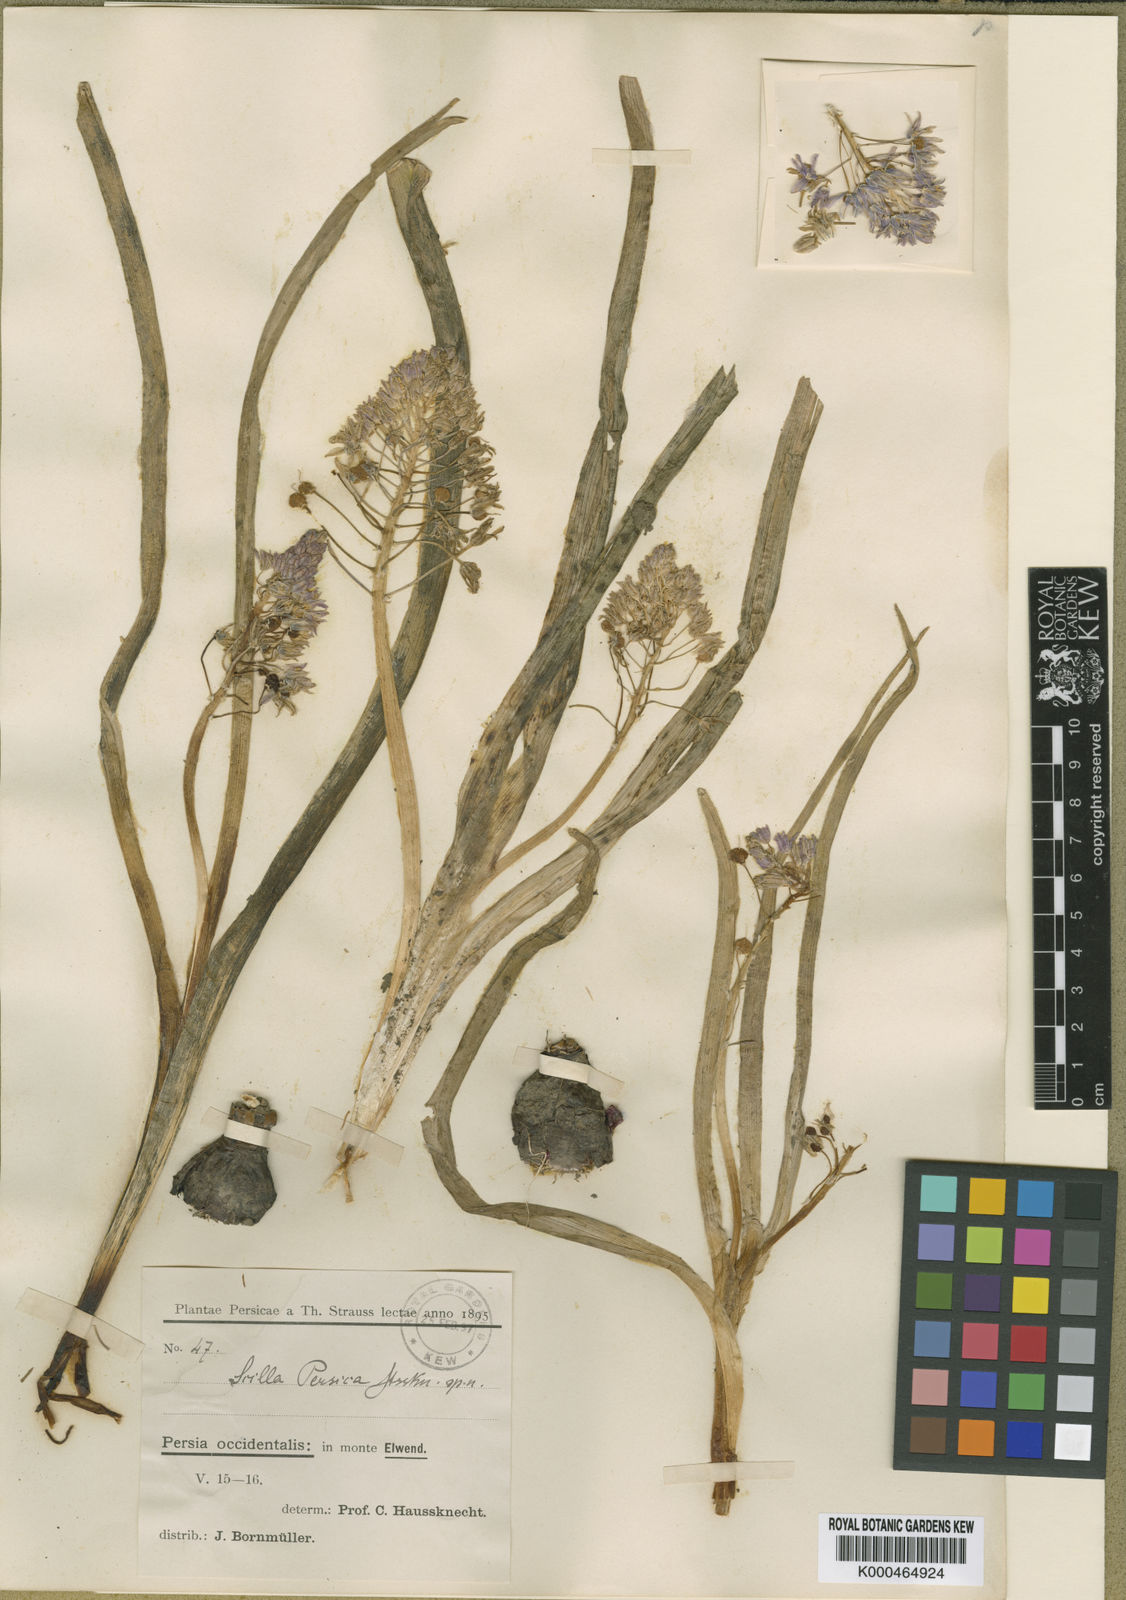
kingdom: Plantae
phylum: Tracheophyta
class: Liliopsida
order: Asparagales
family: Asparagaceae
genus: Zagrosia
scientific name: Zagrosia persica
